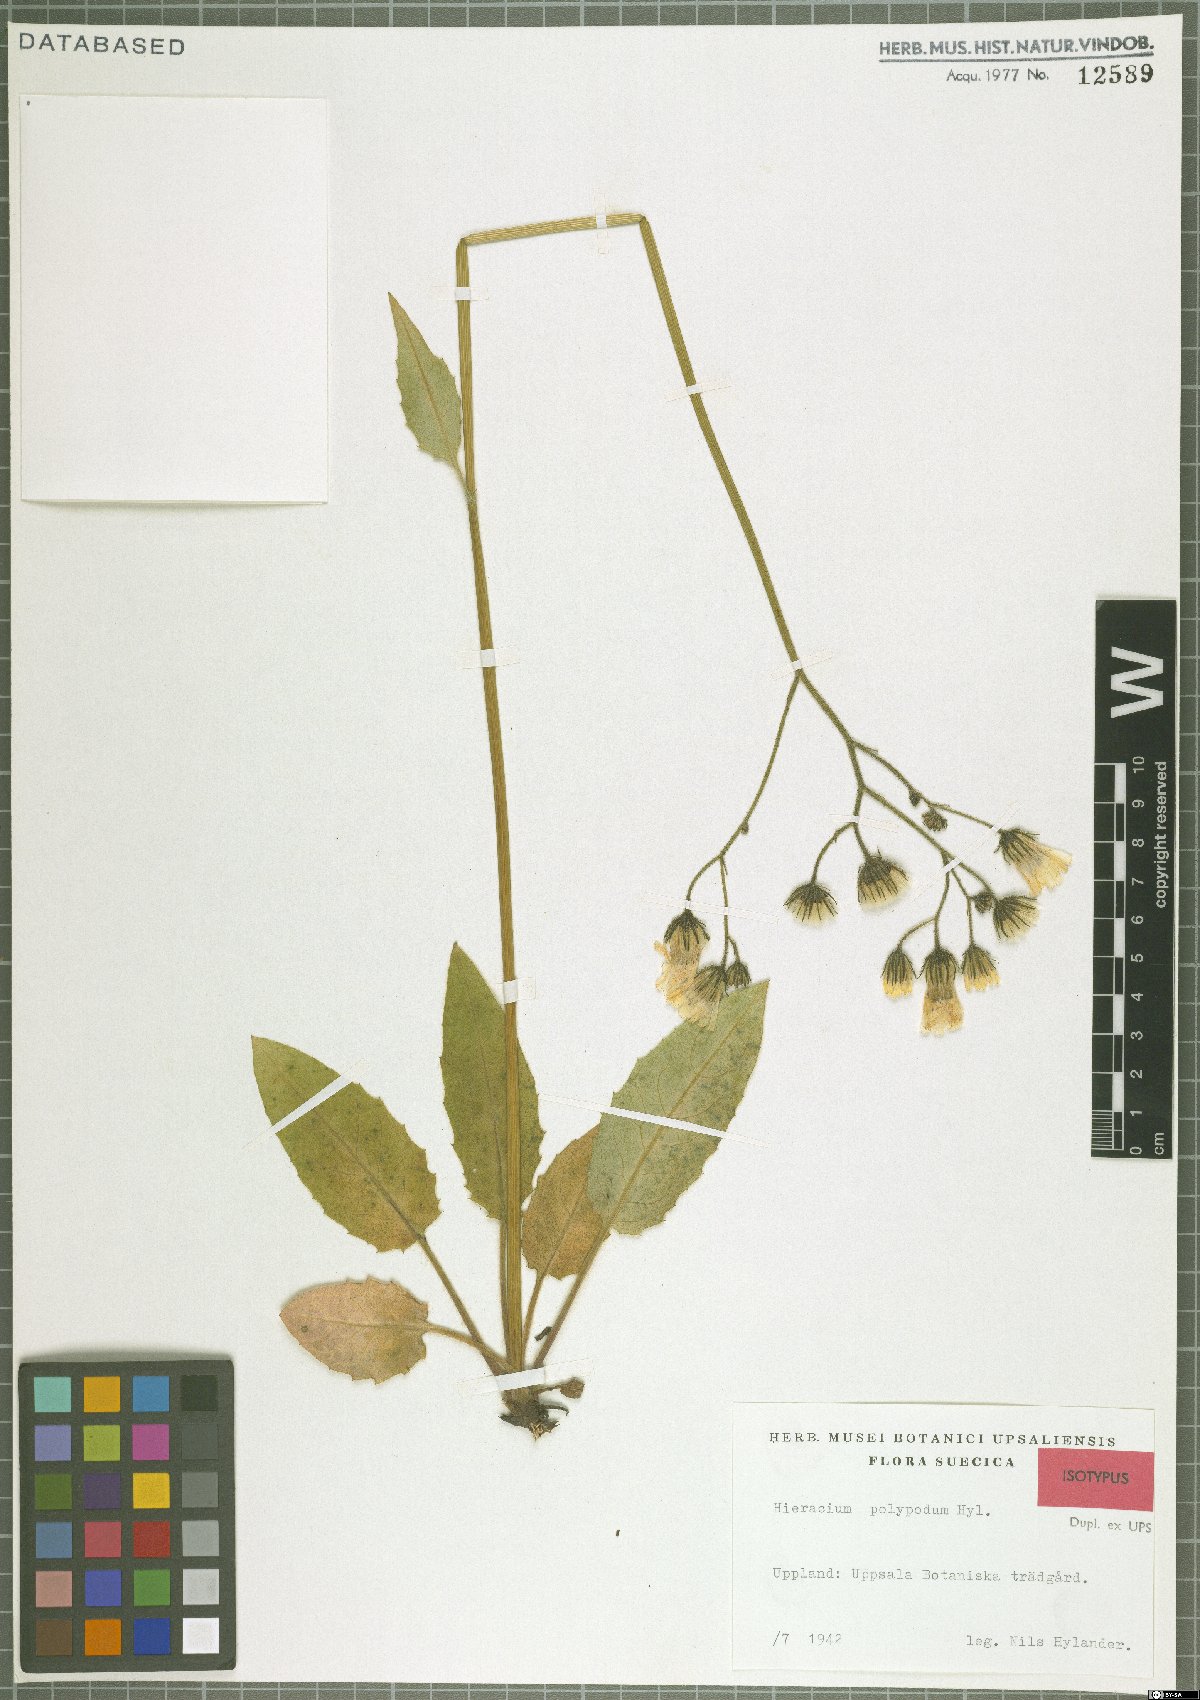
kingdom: Plantae
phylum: Tracheophyta
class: Magnoliopsida
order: Asterales
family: Asteraceae
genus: Hieracium
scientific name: Hieracium mimeticum
